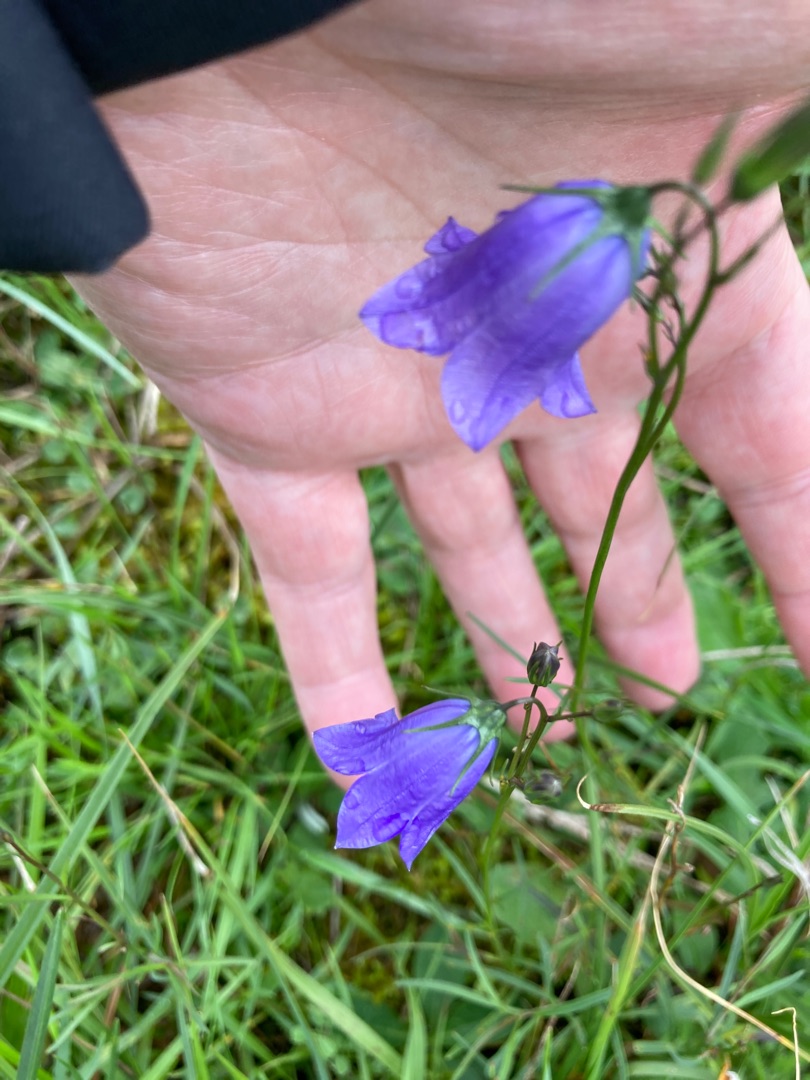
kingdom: Plantae
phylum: Tracheophyta
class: Magnoliopsida
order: Asterales
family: Campanulaceae
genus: Campanula
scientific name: Campanula rotundifolia
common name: Liden klokke
